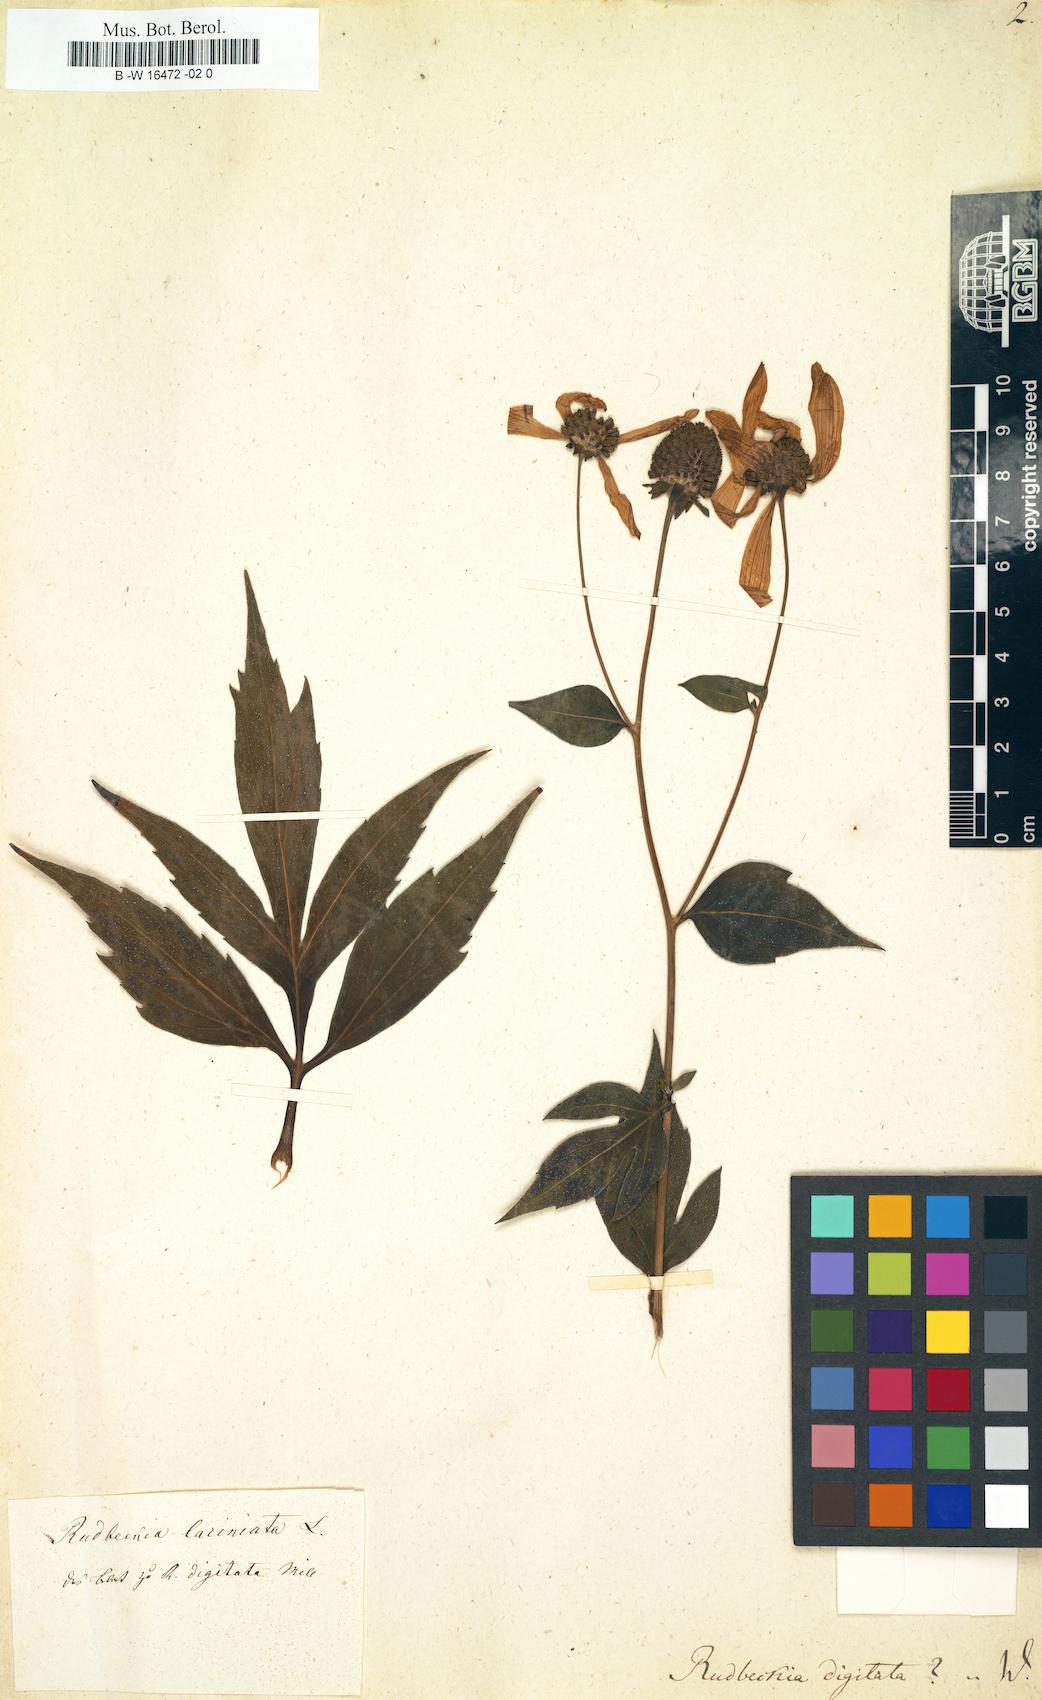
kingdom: Plantae
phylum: Tracheophyta
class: Magnoliopsida
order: Asterales
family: Asteraceae
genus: Rudbeckia
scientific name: Rudbeckia laciniata
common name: Coneflower
